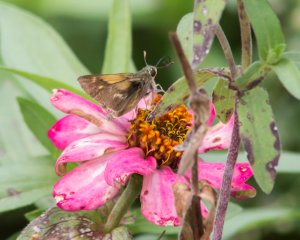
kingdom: Animalia
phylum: Arthropoda
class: Insecta
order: Lepidoptera
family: Hesperiidae
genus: Polites
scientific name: Polites
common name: Crossline Skipper
